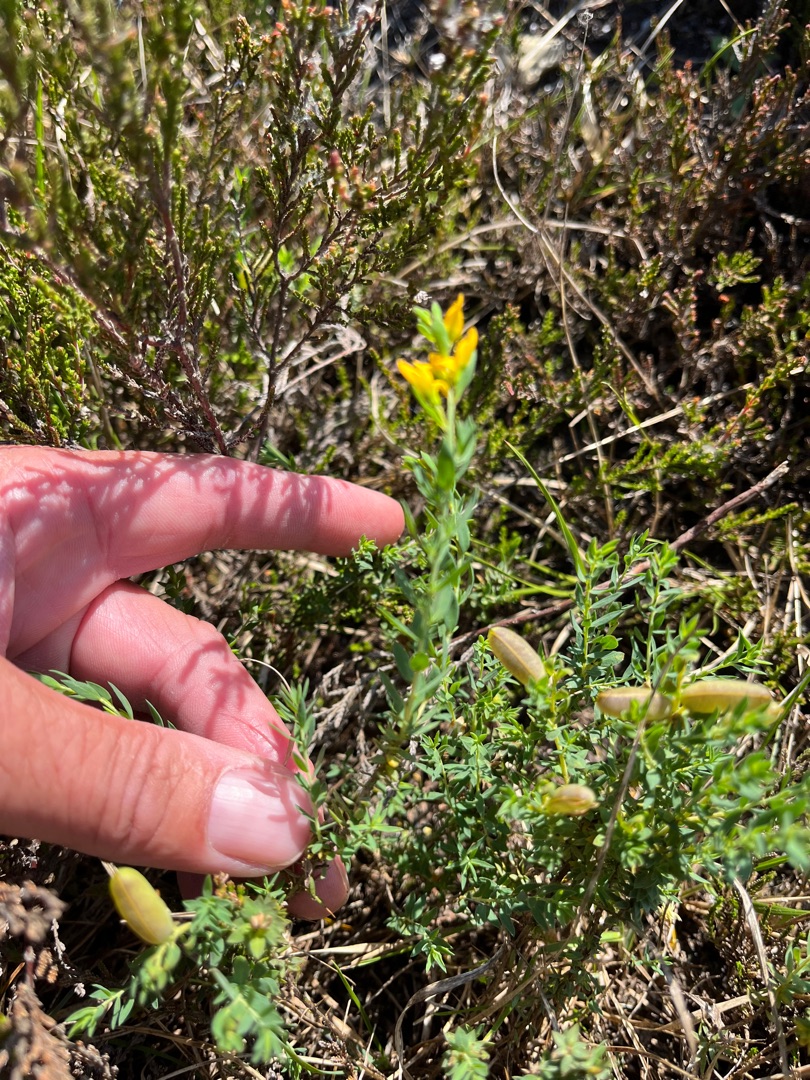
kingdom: Plantae
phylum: Tracheophyta
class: Magnoliopsida
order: Fabales
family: Fabaceae
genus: Genista
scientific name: Genista anglica
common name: Engelsk visse
